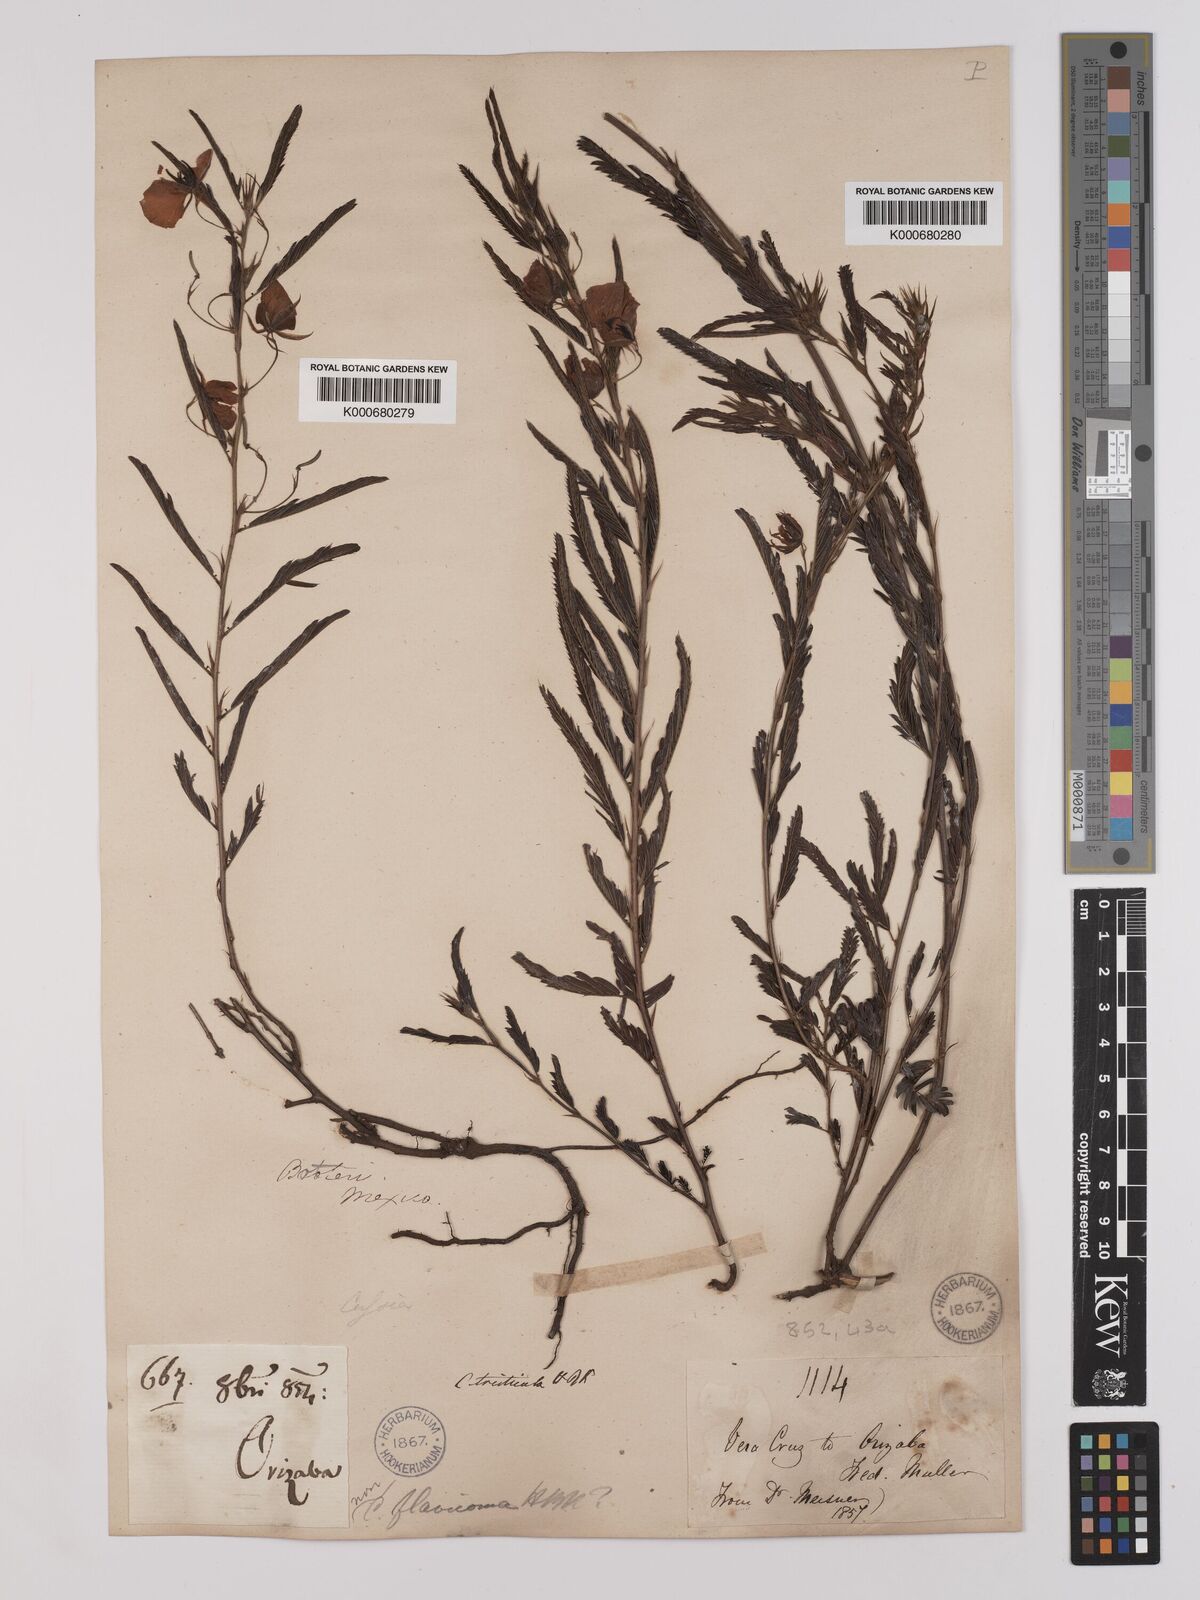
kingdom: Plantae
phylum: Tracheophyta
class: Magnoliopsida
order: Fabales
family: Fabaceae
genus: Chamaecrista
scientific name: Chamaecrista glandulosa
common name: Wild peas
